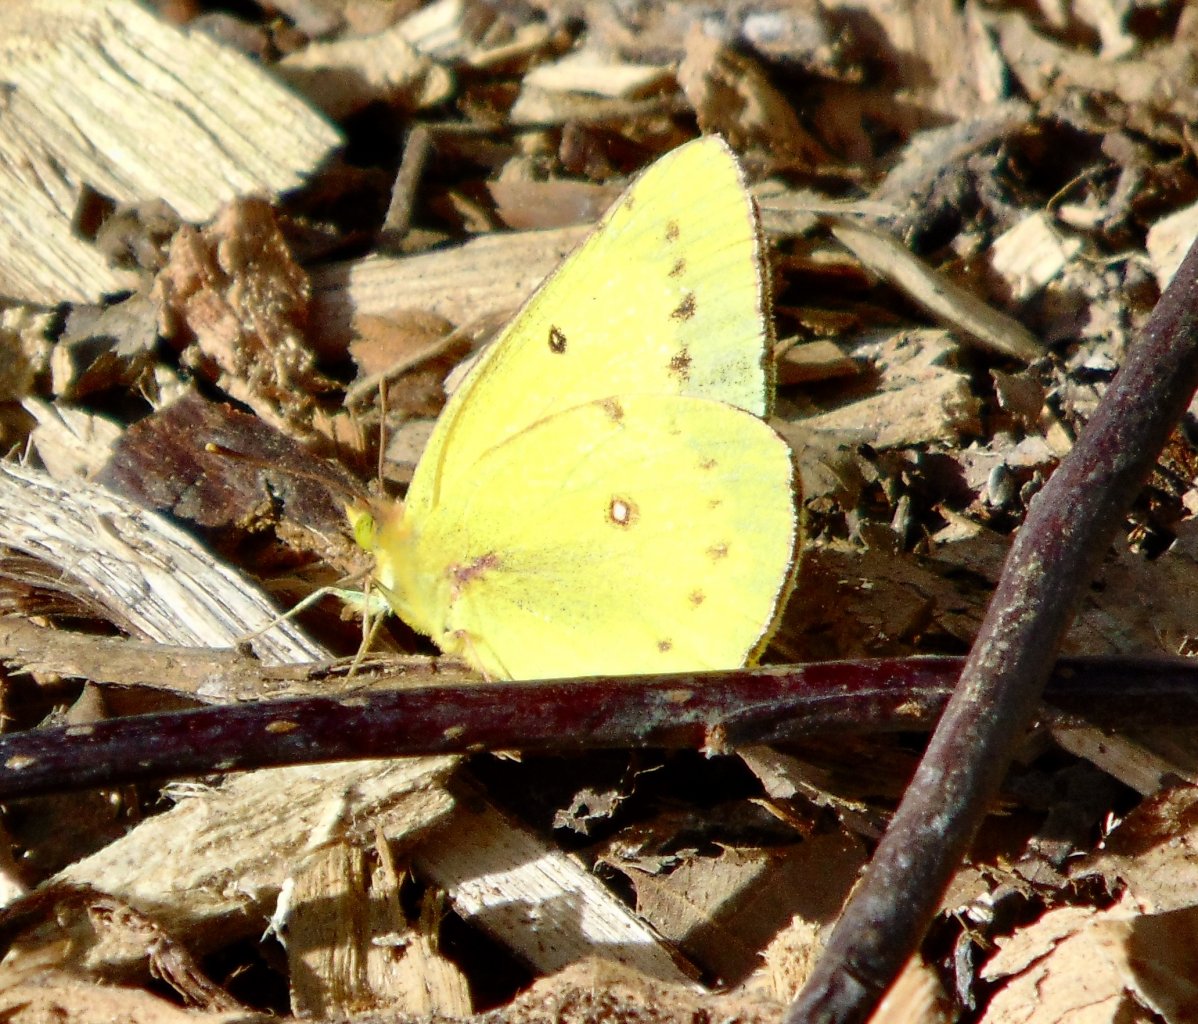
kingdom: Animalia
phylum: Arthropoda
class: Insecta
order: Lepidoptera
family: Pieridae
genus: Colias
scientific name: Colias philodice
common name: Clouded Sulphur
